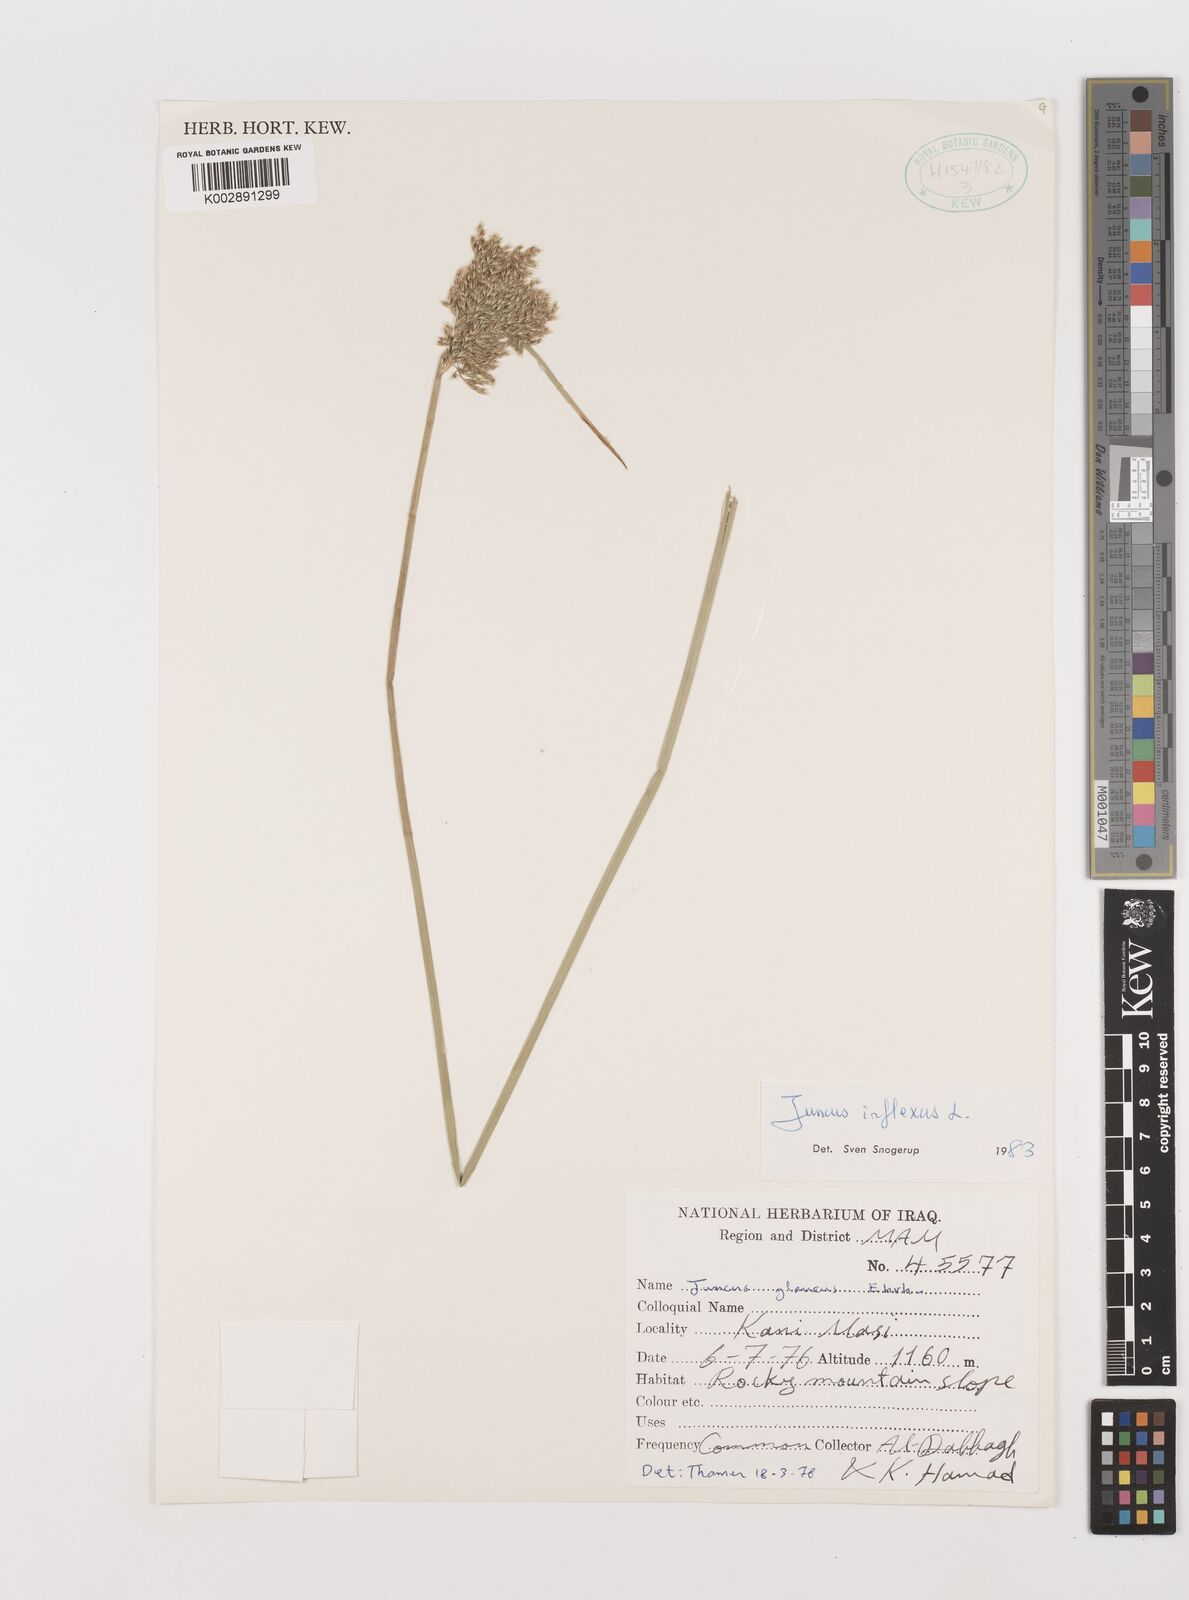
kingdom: Plantae
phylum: Tracheophyta
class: Liliopsida
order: Poales
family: Juncaceae
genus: Juncus
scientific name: Juncus inflexus
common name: Hard rush
